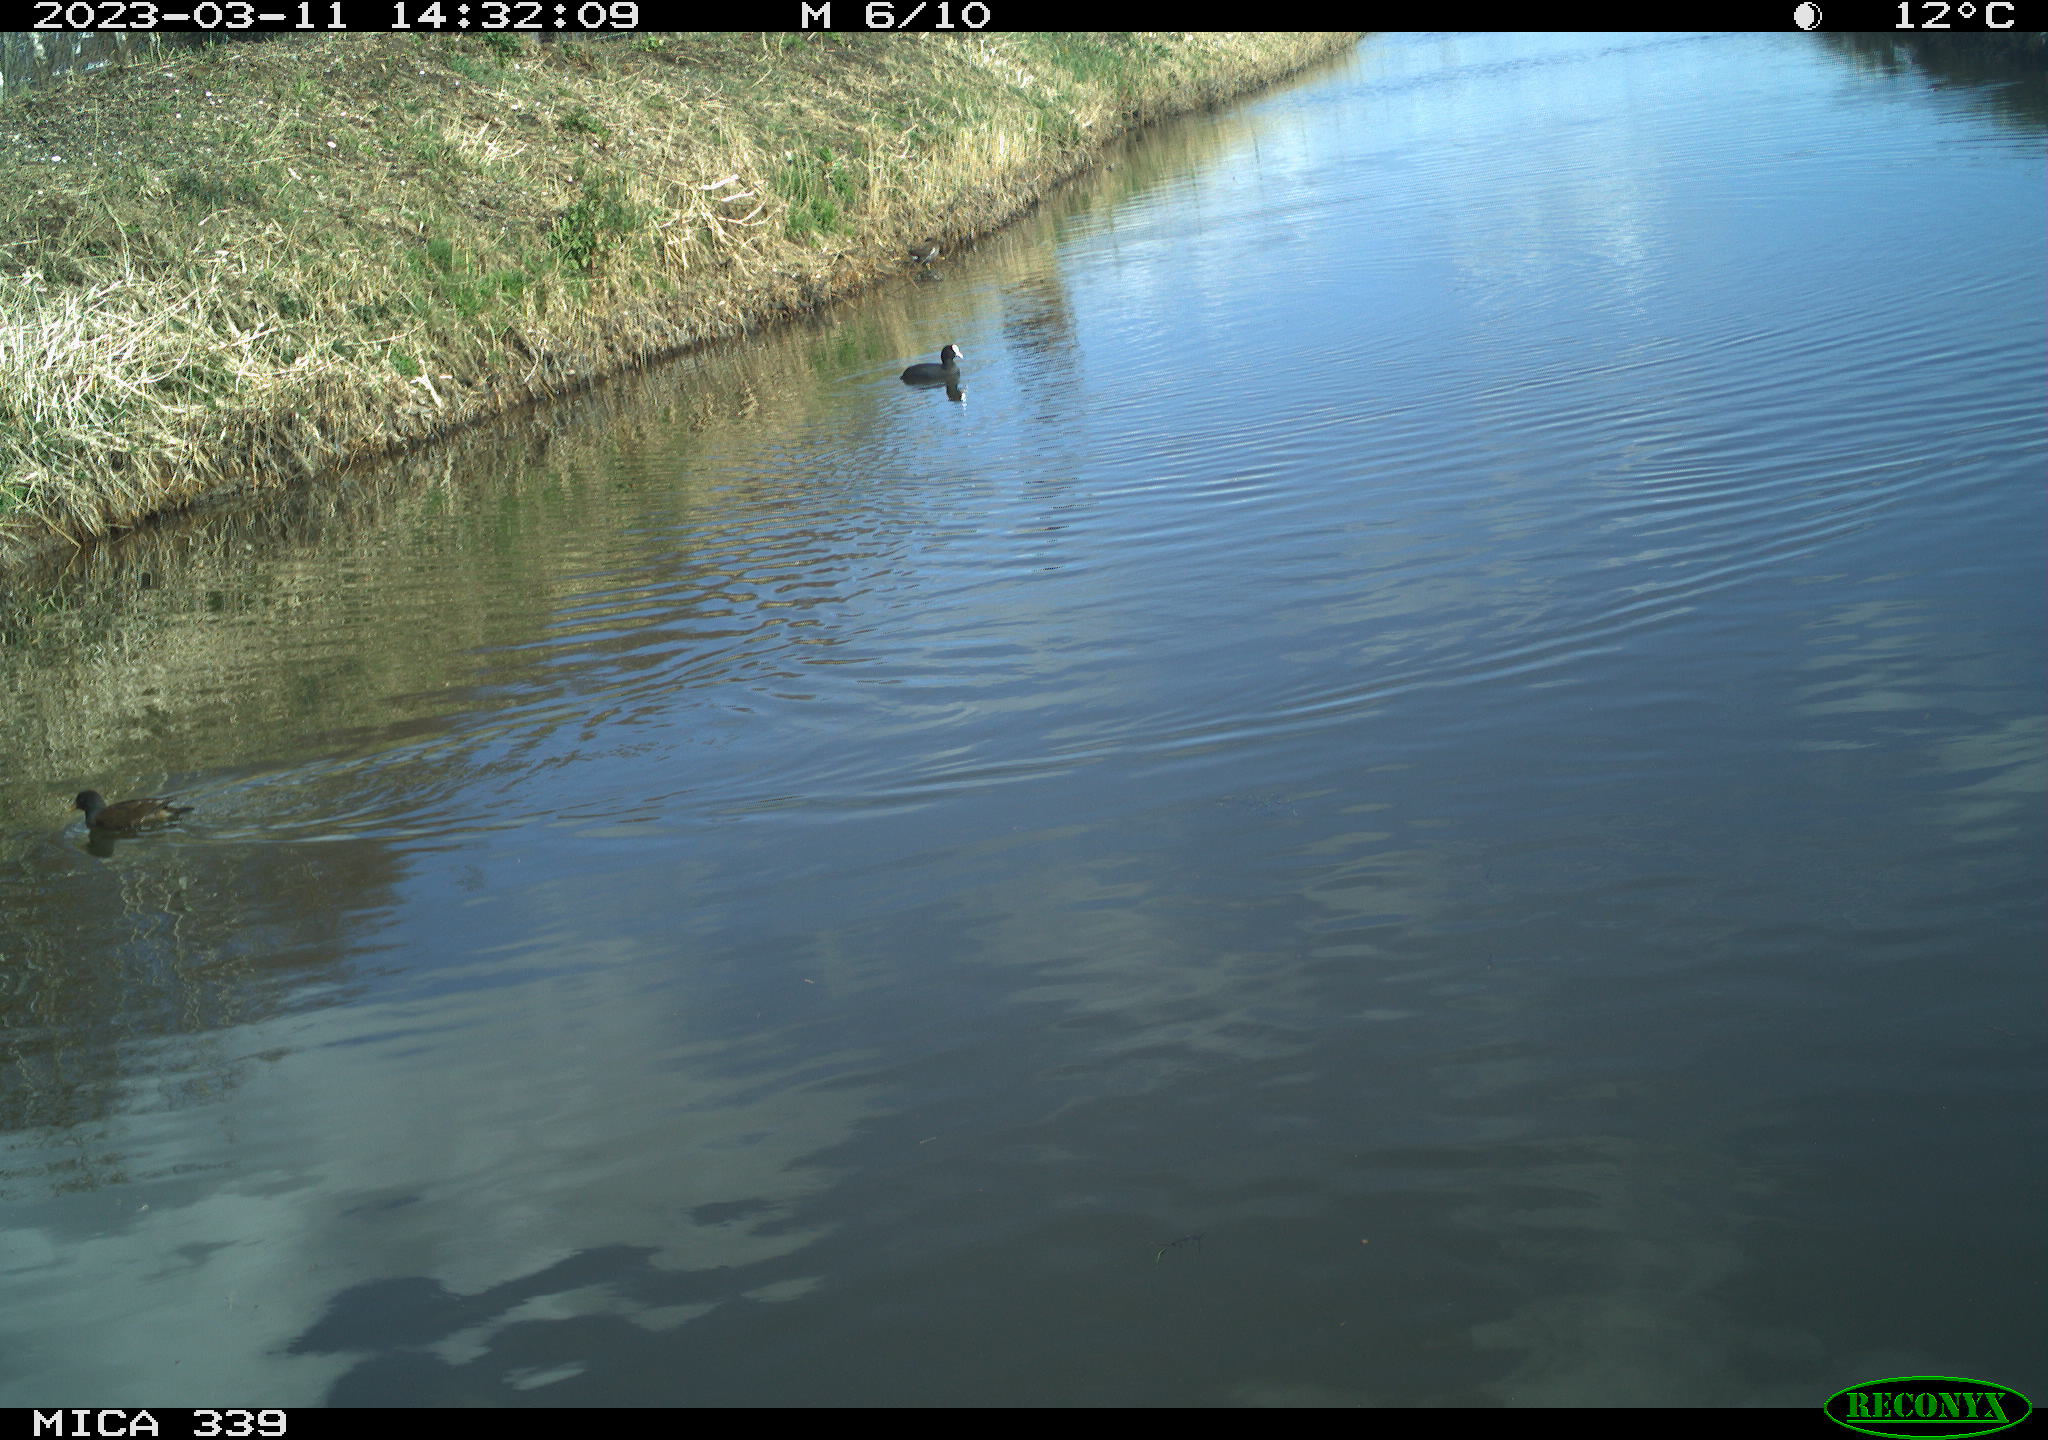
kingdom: Animalia
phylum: Chordata
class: Aves
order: Gruiformes
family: Rallidae
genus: Gallinula
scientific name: Gallinula chloropus
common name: Common moorhen
